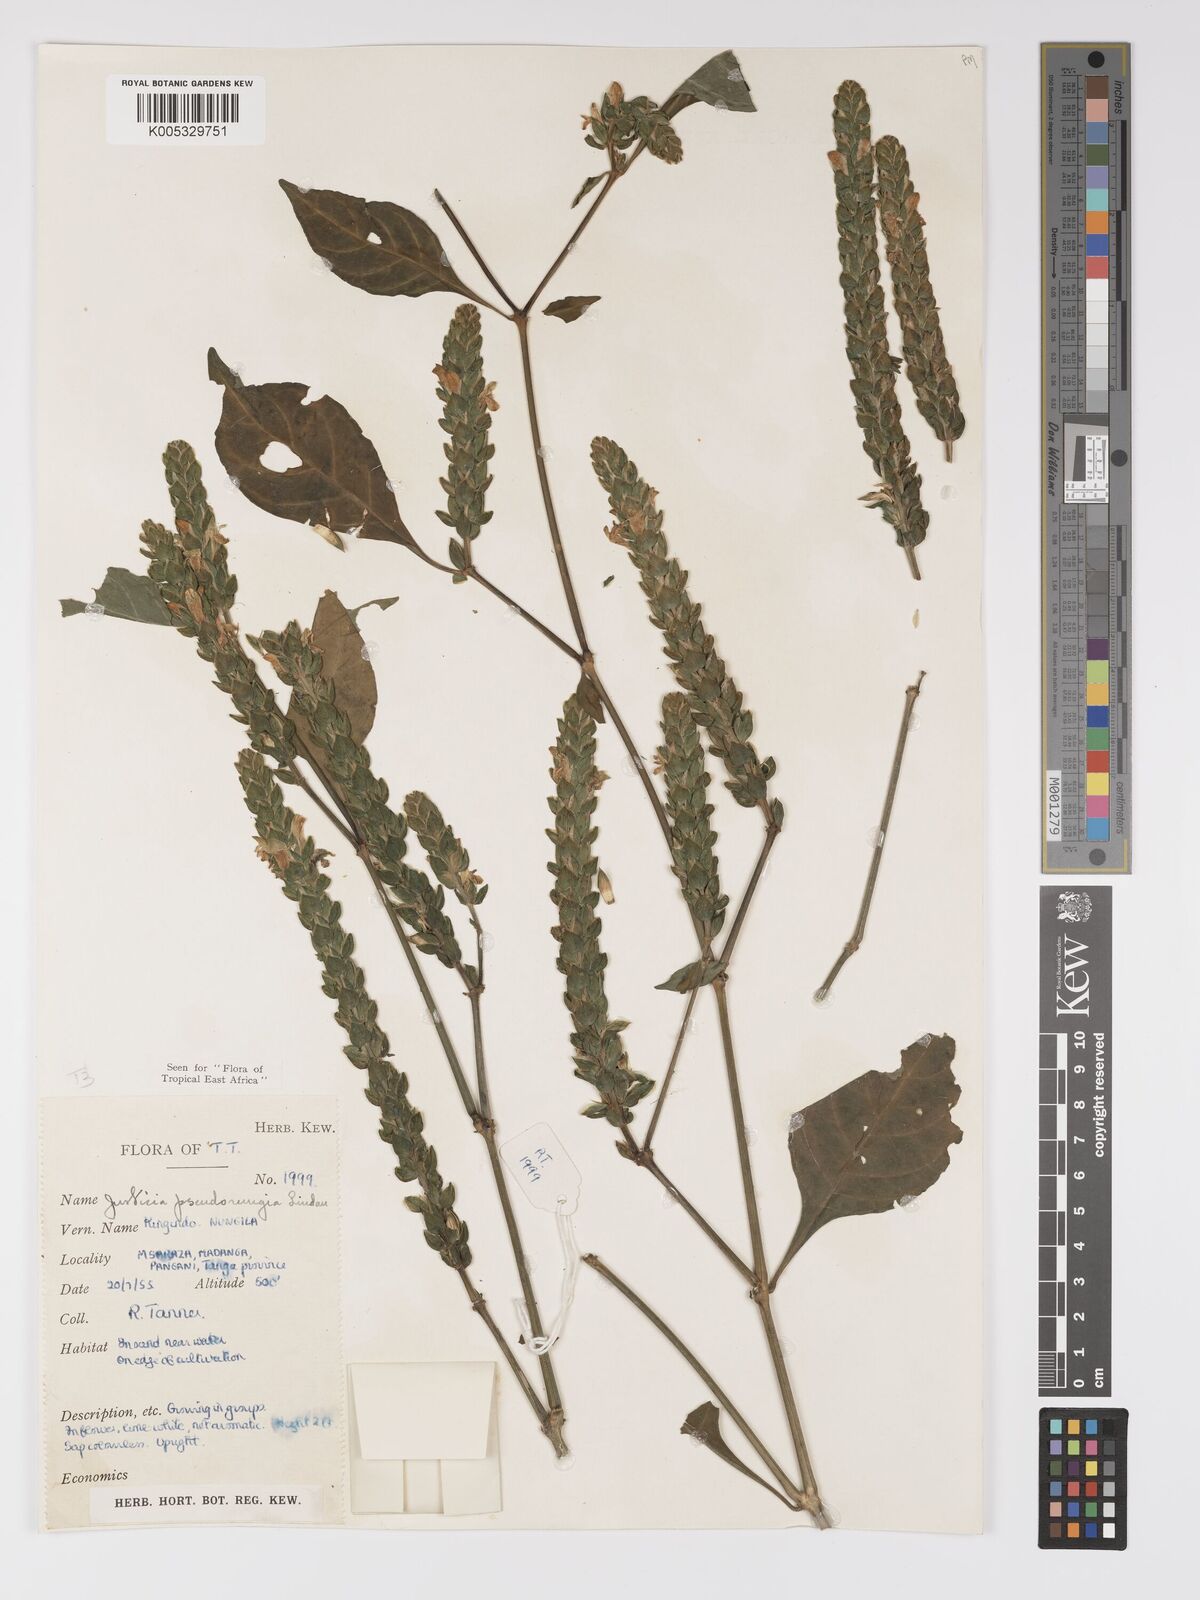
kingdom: Plantae
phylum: Tracheophyta
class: Magnoliopsida
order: Lamiales
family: Acanthaceae
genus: Justicia
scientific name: Justicia pseudorungia
